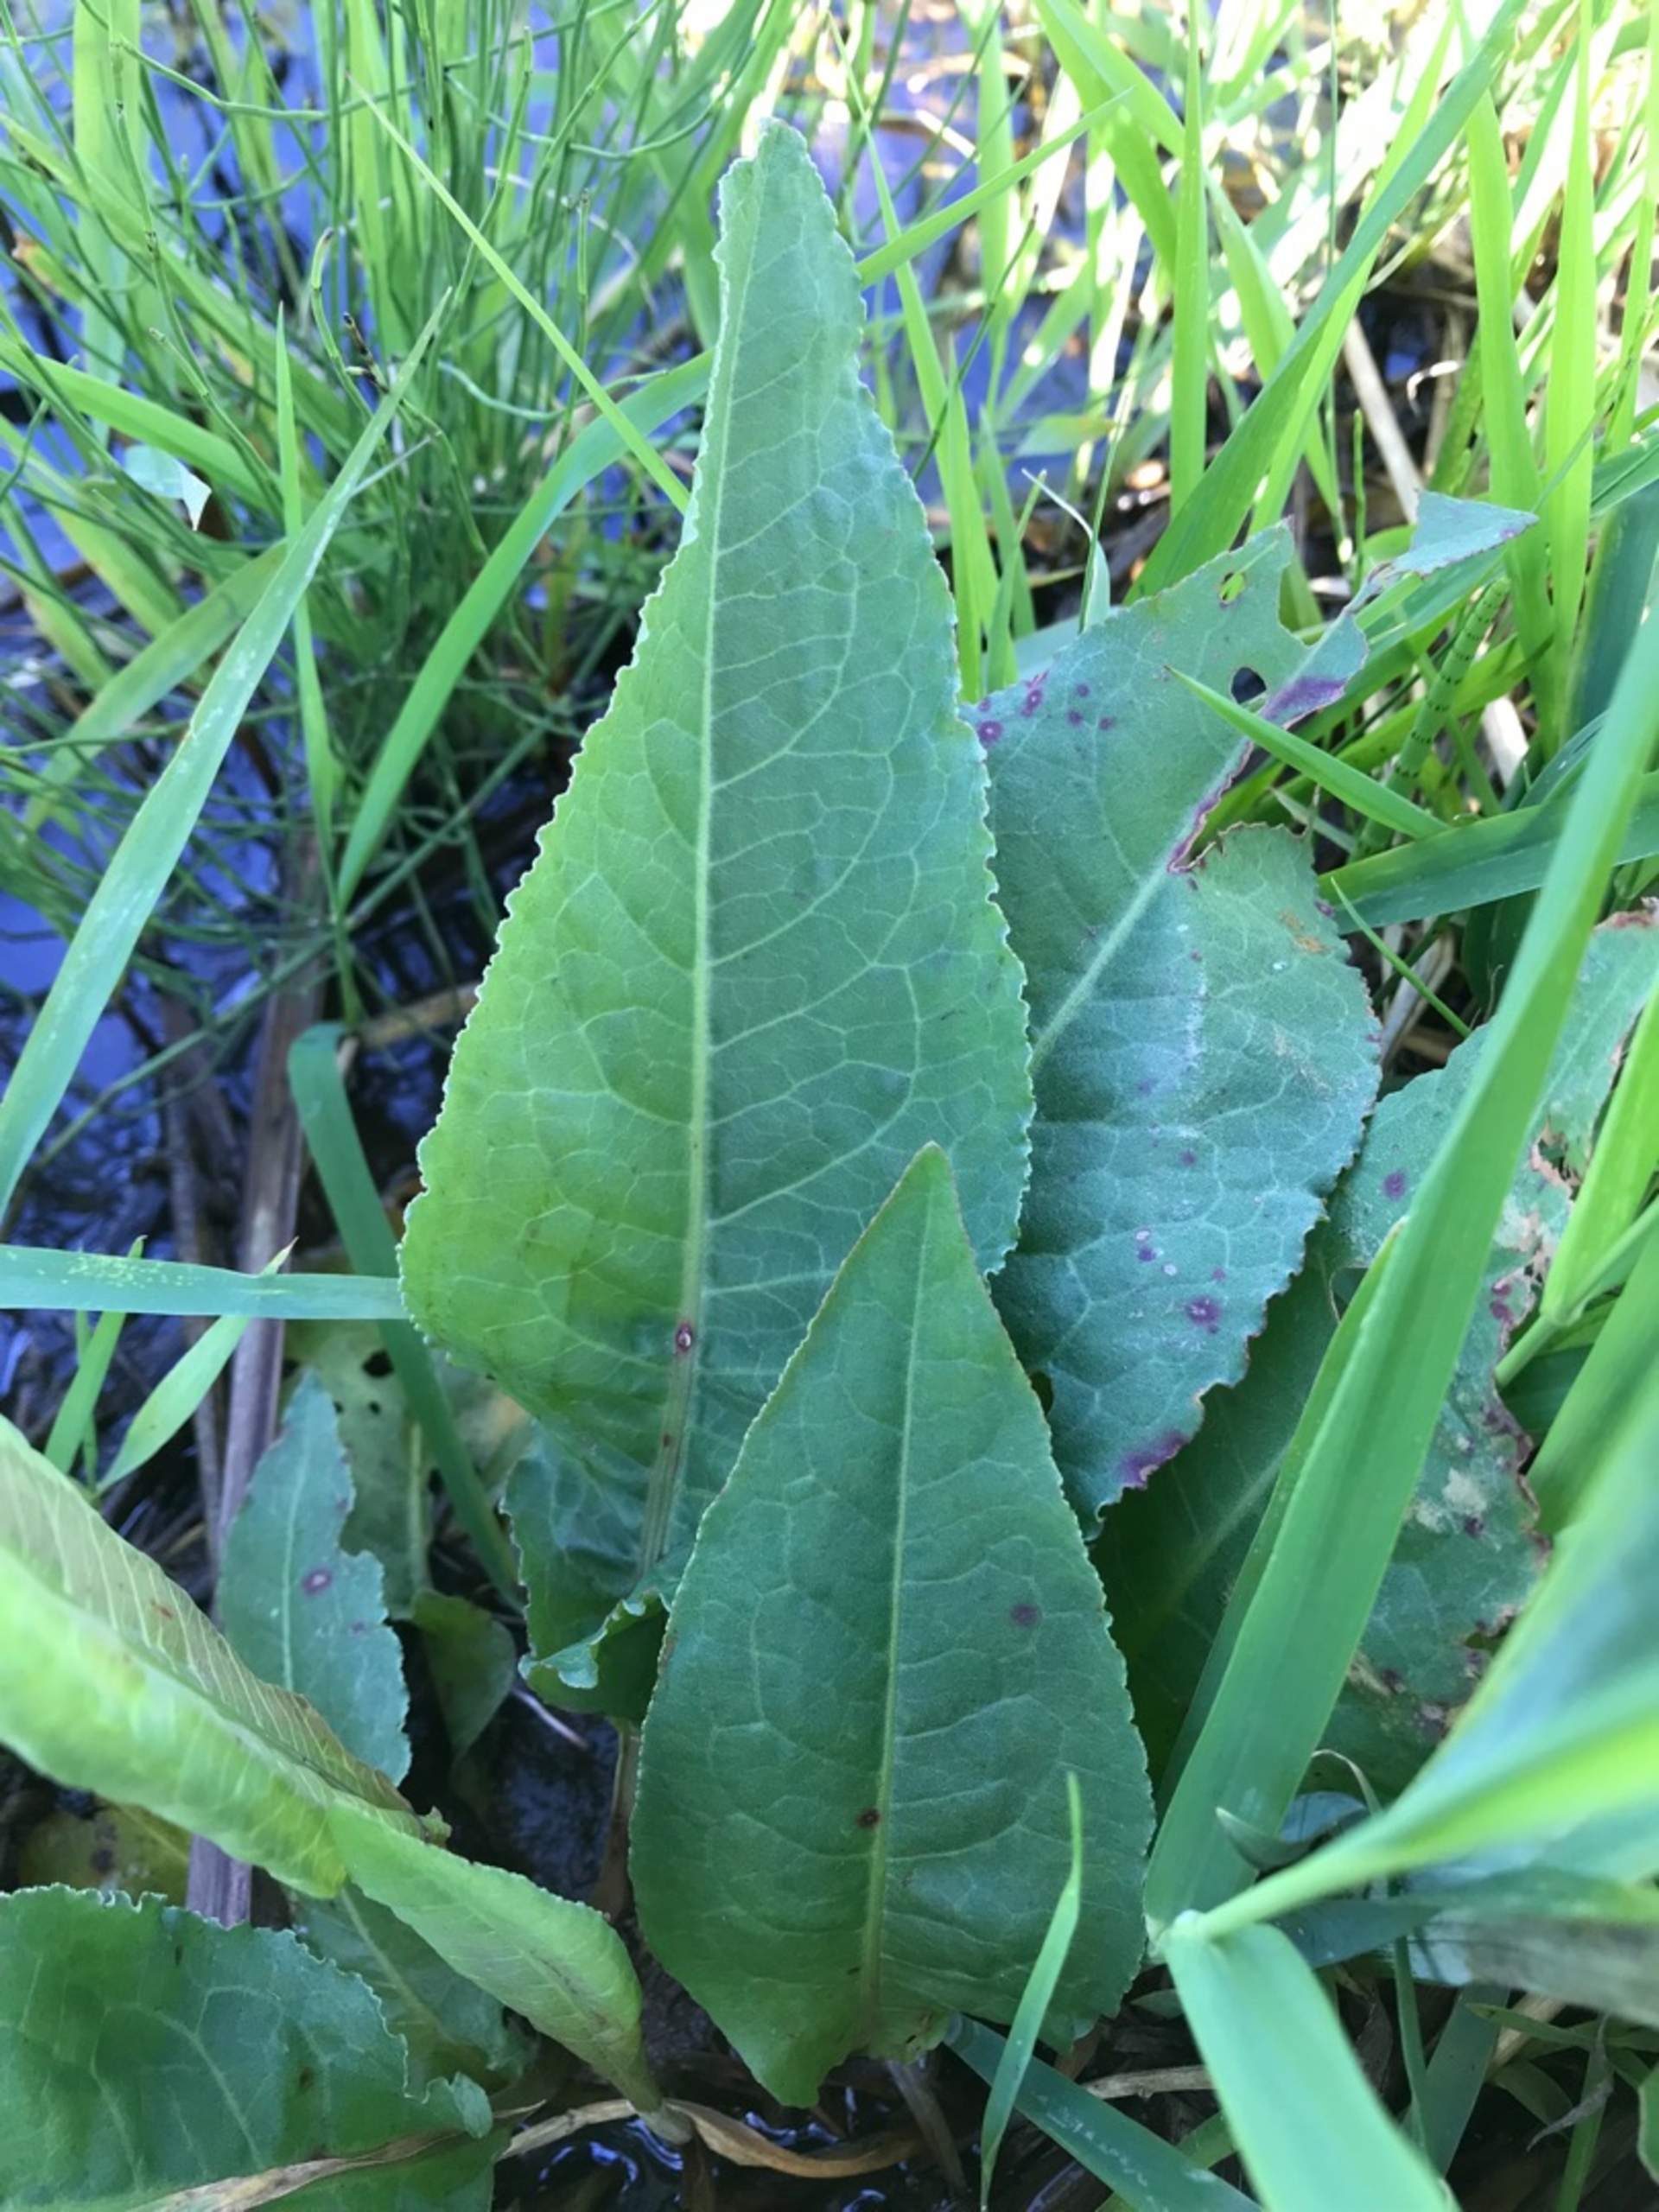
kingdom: Plantae
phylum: Tracheophyta
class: Magnoliopsida
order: Caryophyllales
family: Polygonaceae
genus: Rumex
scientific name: Rumex hydrolapathum
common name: Vand-skræppe
